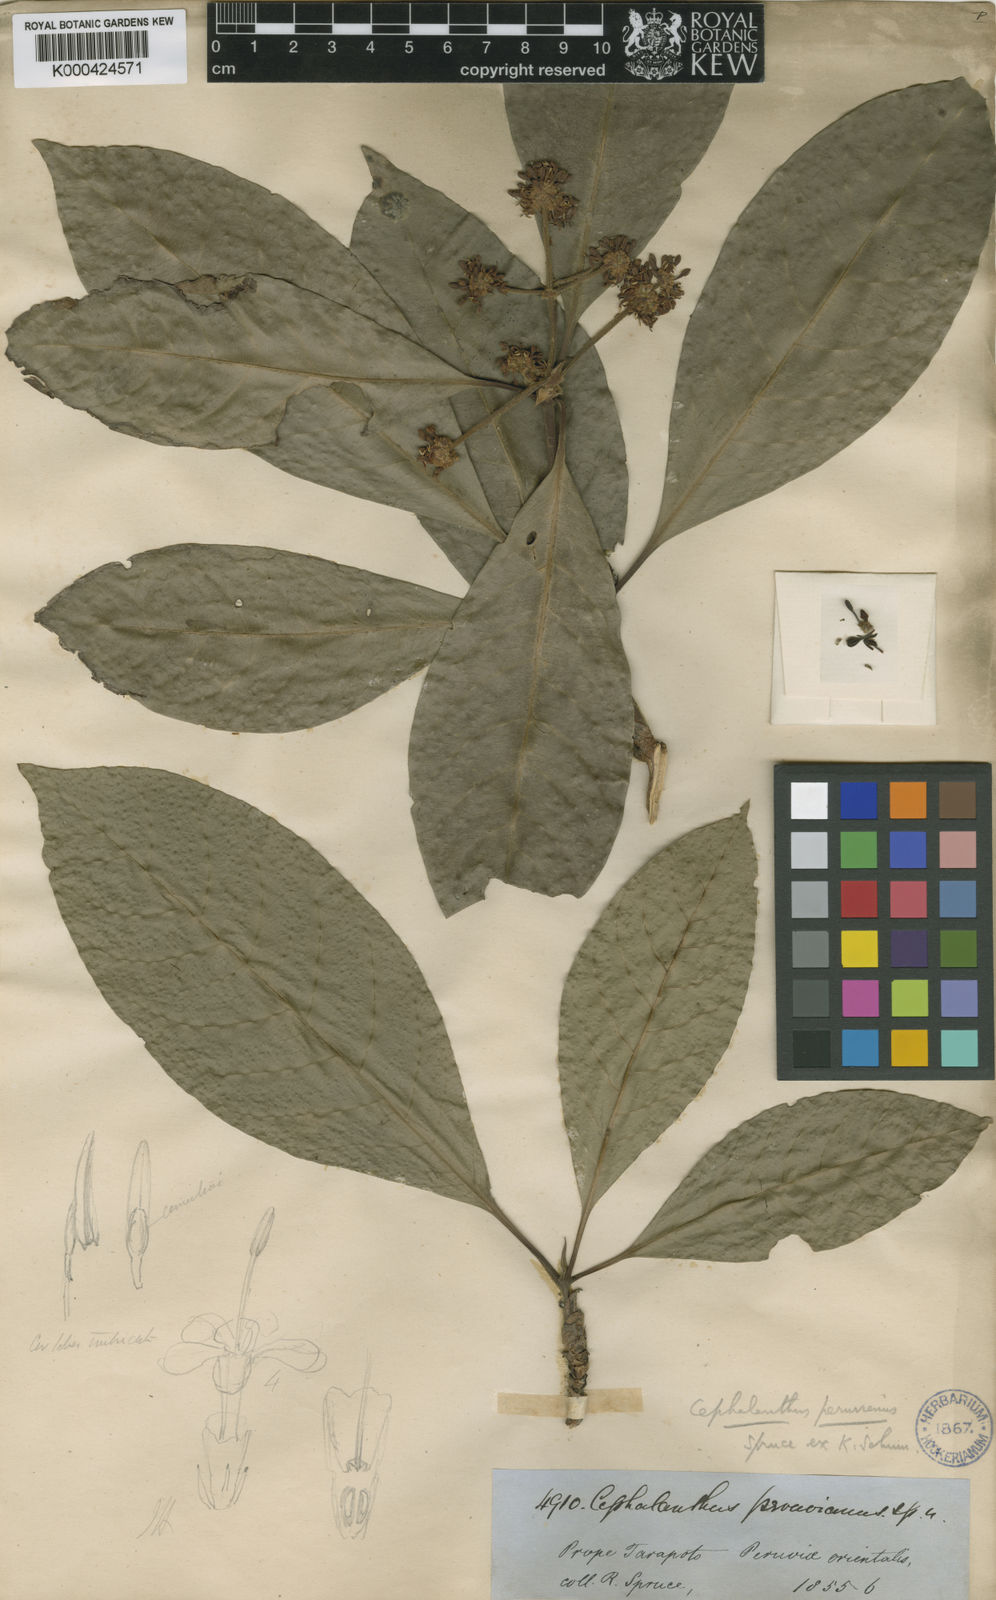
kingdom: Plantae
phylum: Tracheophyta
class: Magnoliopsida
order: Gentianales
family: Rubiaceae
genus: Ixora
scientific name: Ixora peruviana
